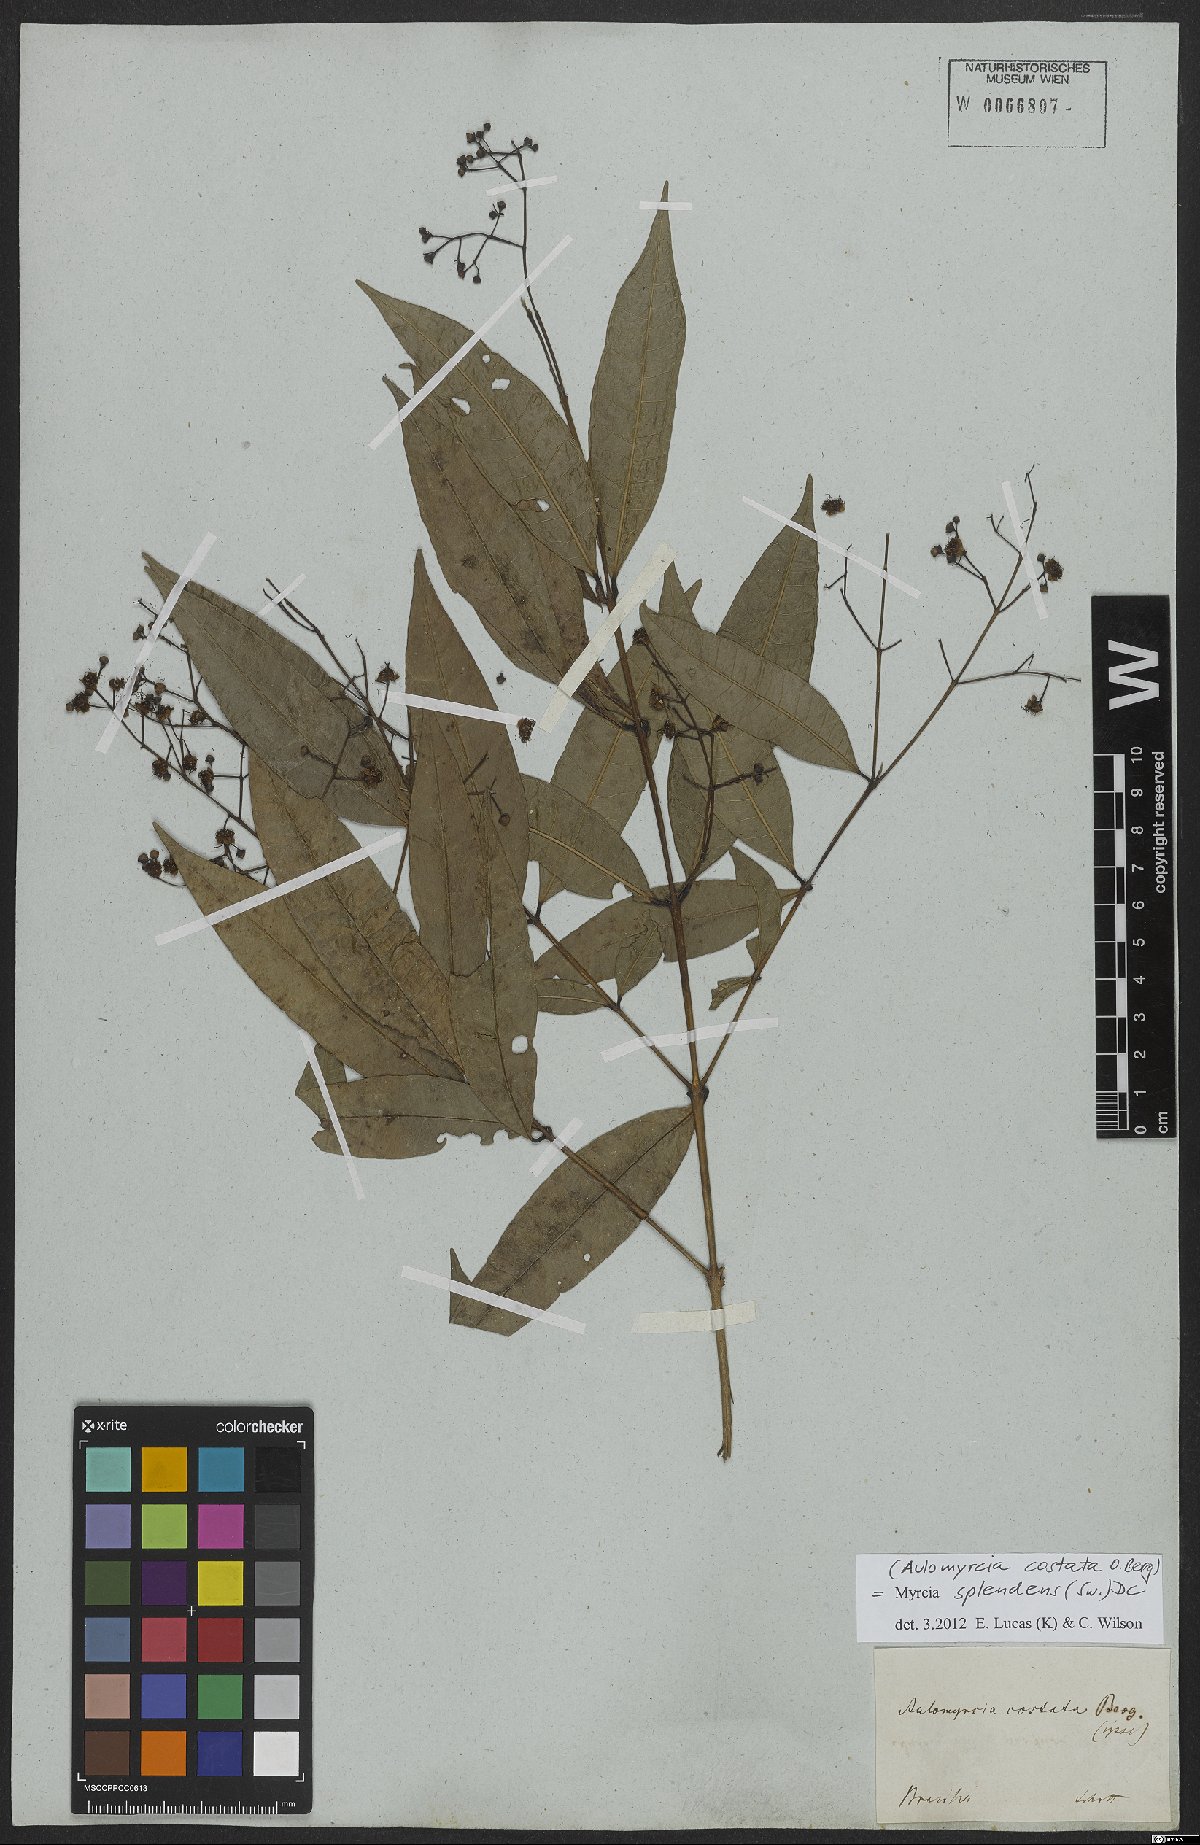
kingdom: Plantae
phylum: Tracheophyta
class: Magnoliopsida
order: Myrtales
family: Myrtaceae
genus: Myrcia
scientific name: Myrcia splendens
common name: Surinam cherry
